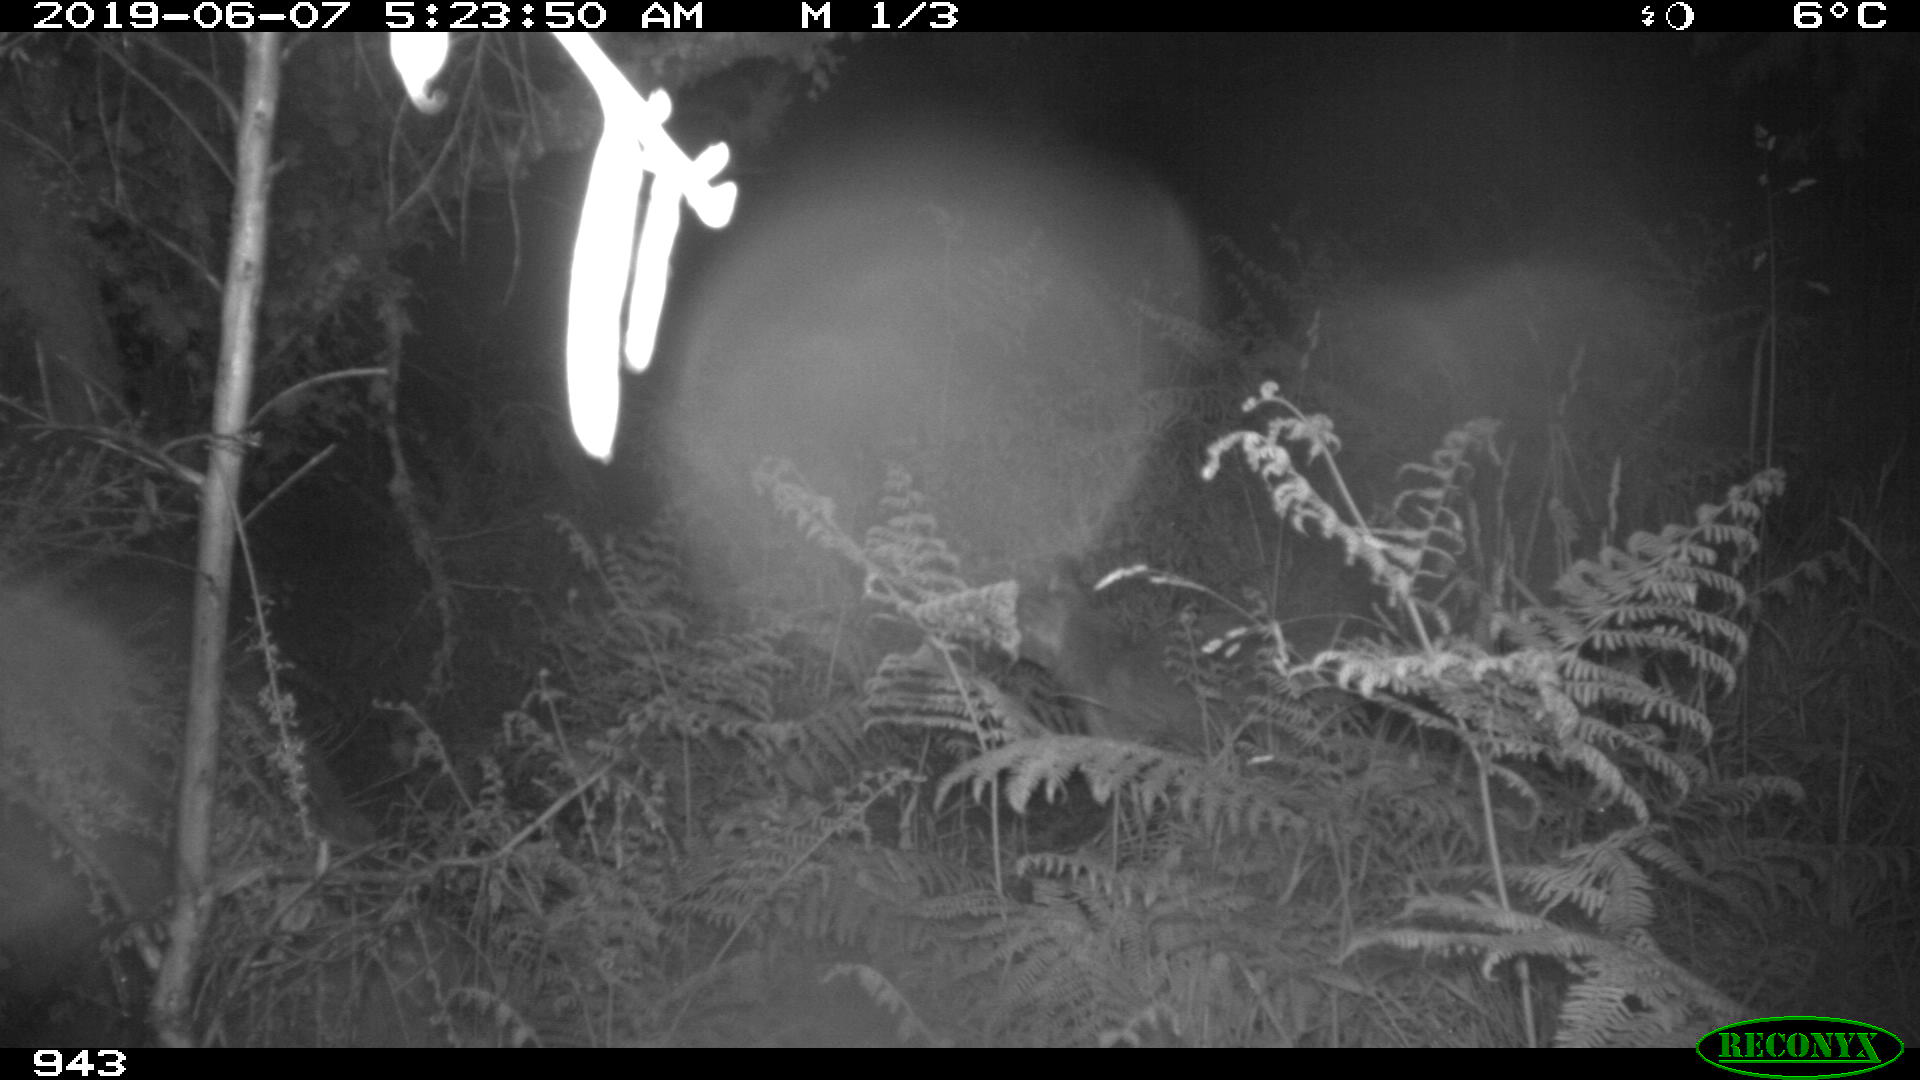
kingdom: Animalia
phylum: Chordata
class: Mammalia
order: Carnivora
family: Canidae
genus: Vulpes
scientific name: Vulpes vulpes
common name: Red fox
